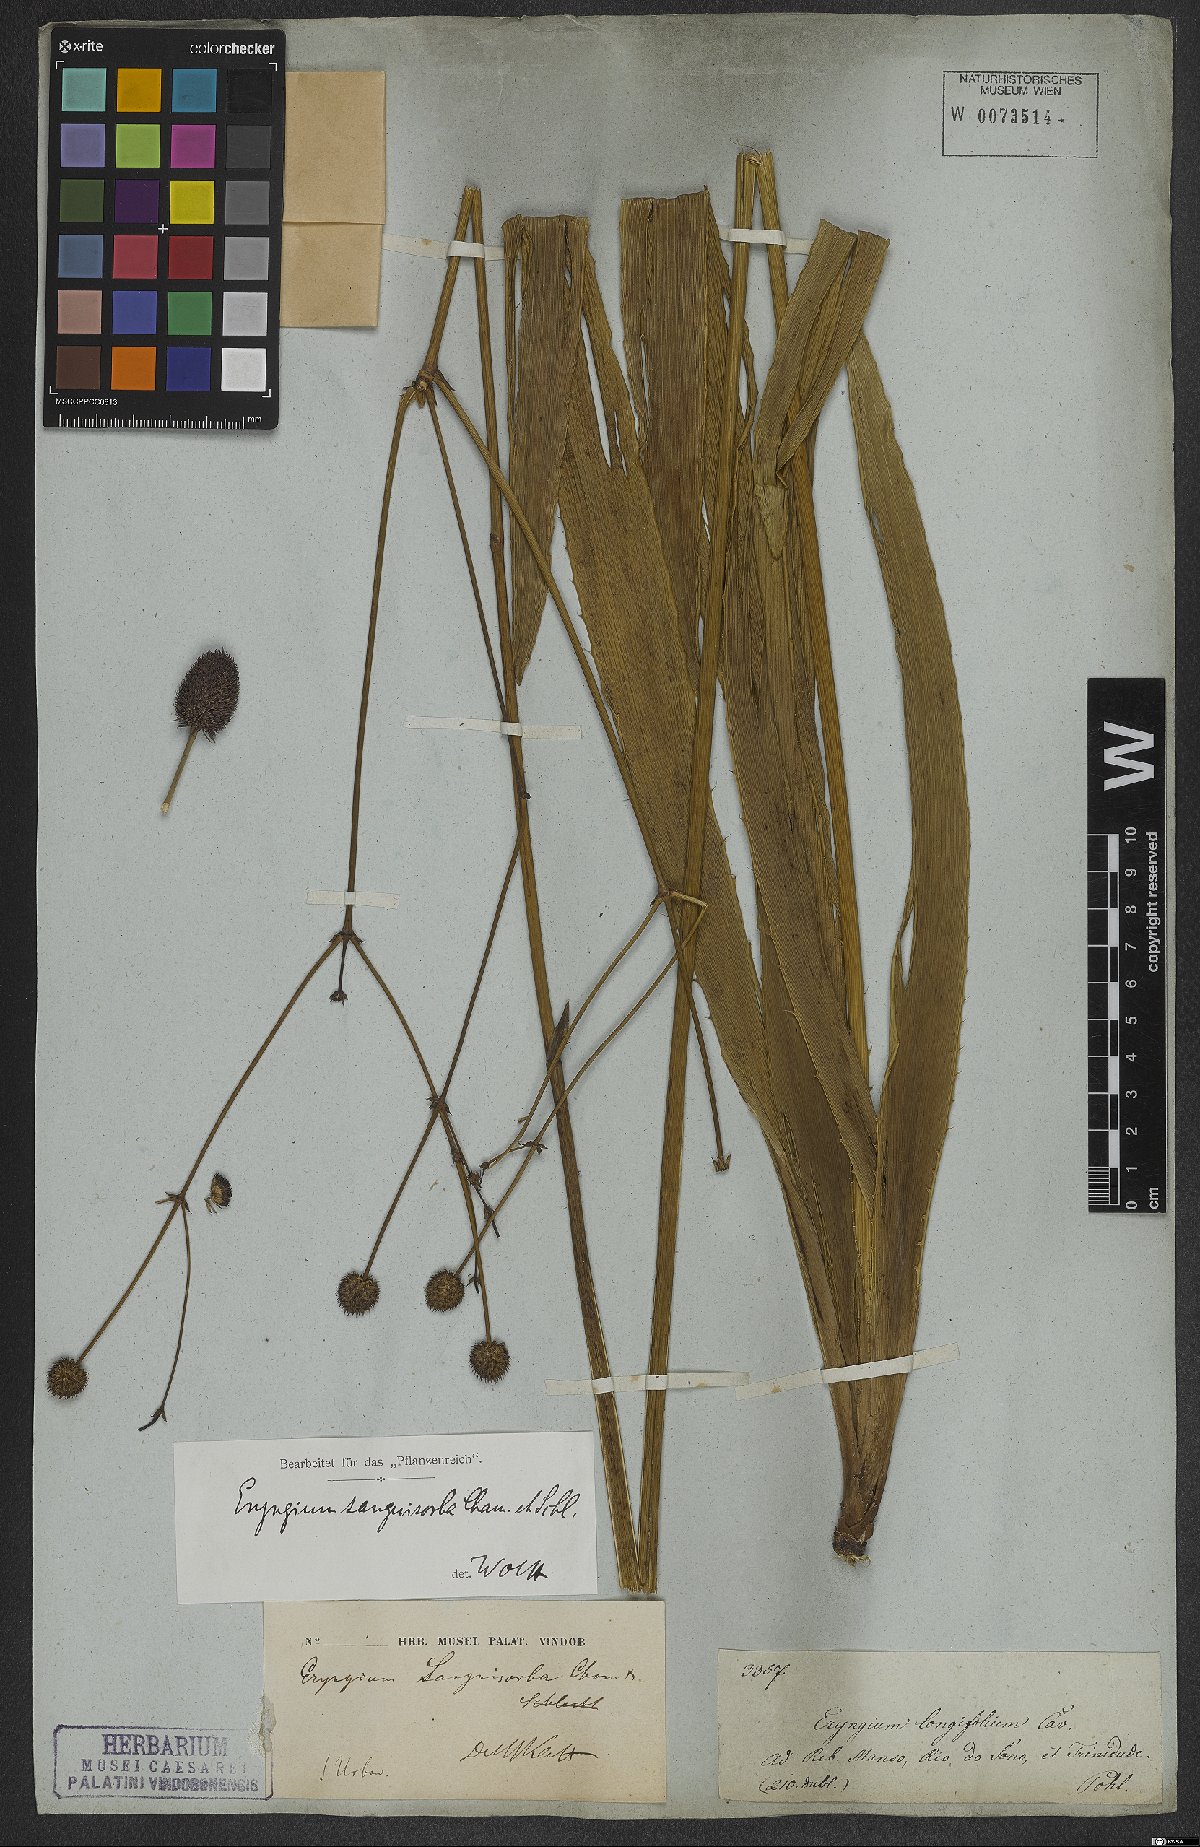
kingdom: Plantae
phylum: Tracheophyta
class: Magnoliopsida
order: Apiales
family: Apiaceae
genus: Eryngium
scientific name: Eryngium sanguisorba
